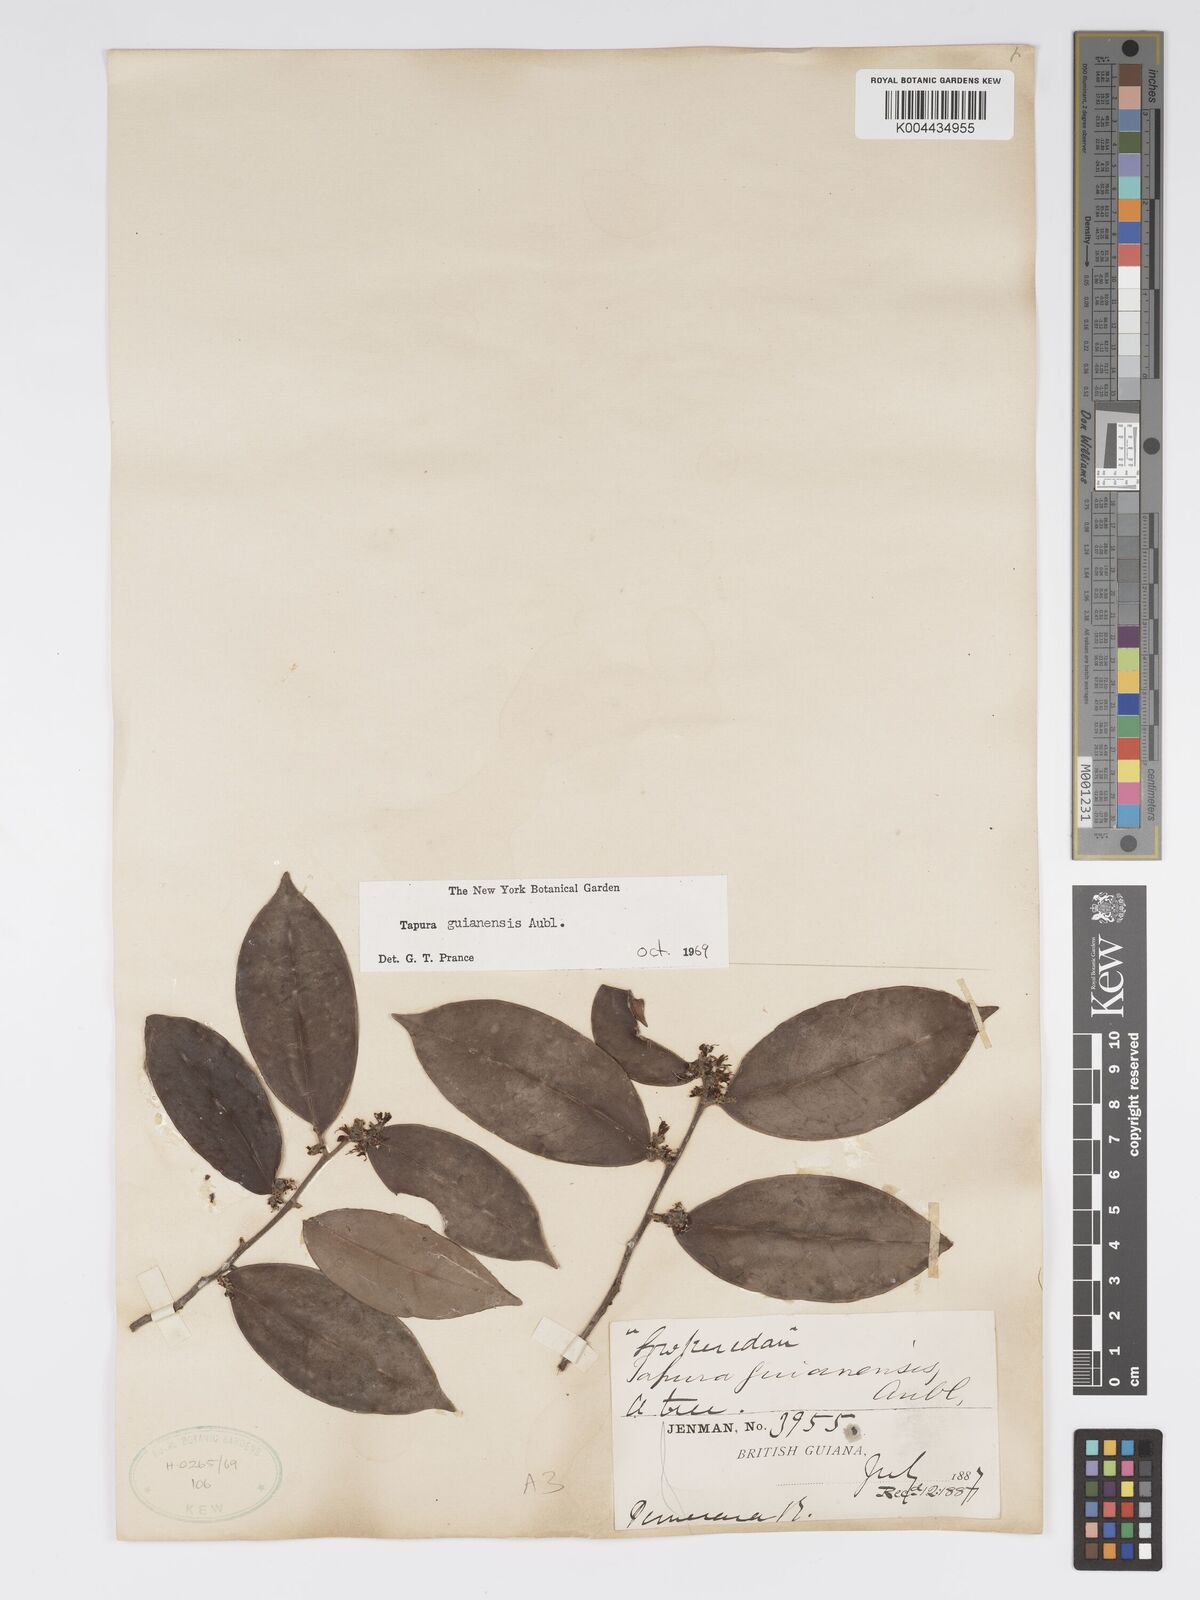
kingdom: Plantae
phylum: Tracheophyta
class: Magnoliopsida
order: Malpighiales
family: Dichapetalaceae
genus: Tapura
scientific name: Tapura guianensis
